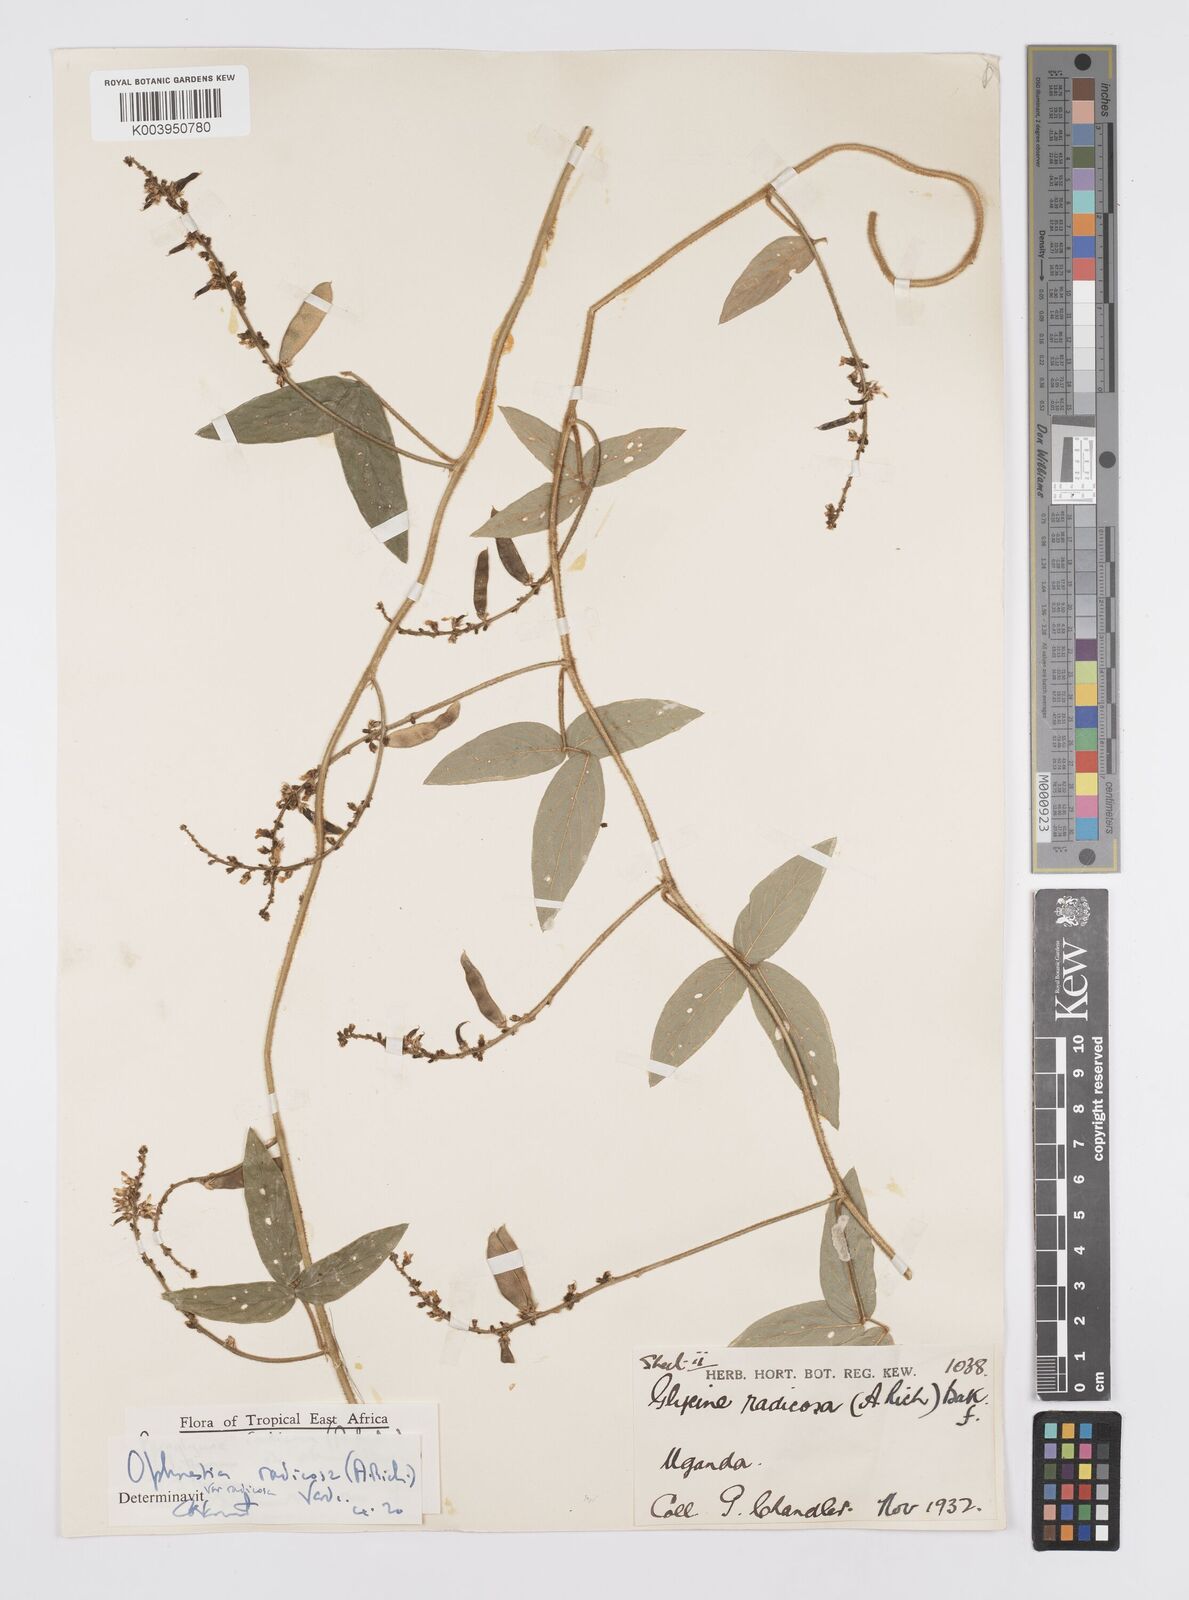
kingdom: Plantae
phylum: Tracheophyta
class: Magnoliopsida
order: Fabales
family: Fabaceae
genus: Ophrestia
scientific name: Ophrestia radicosa
